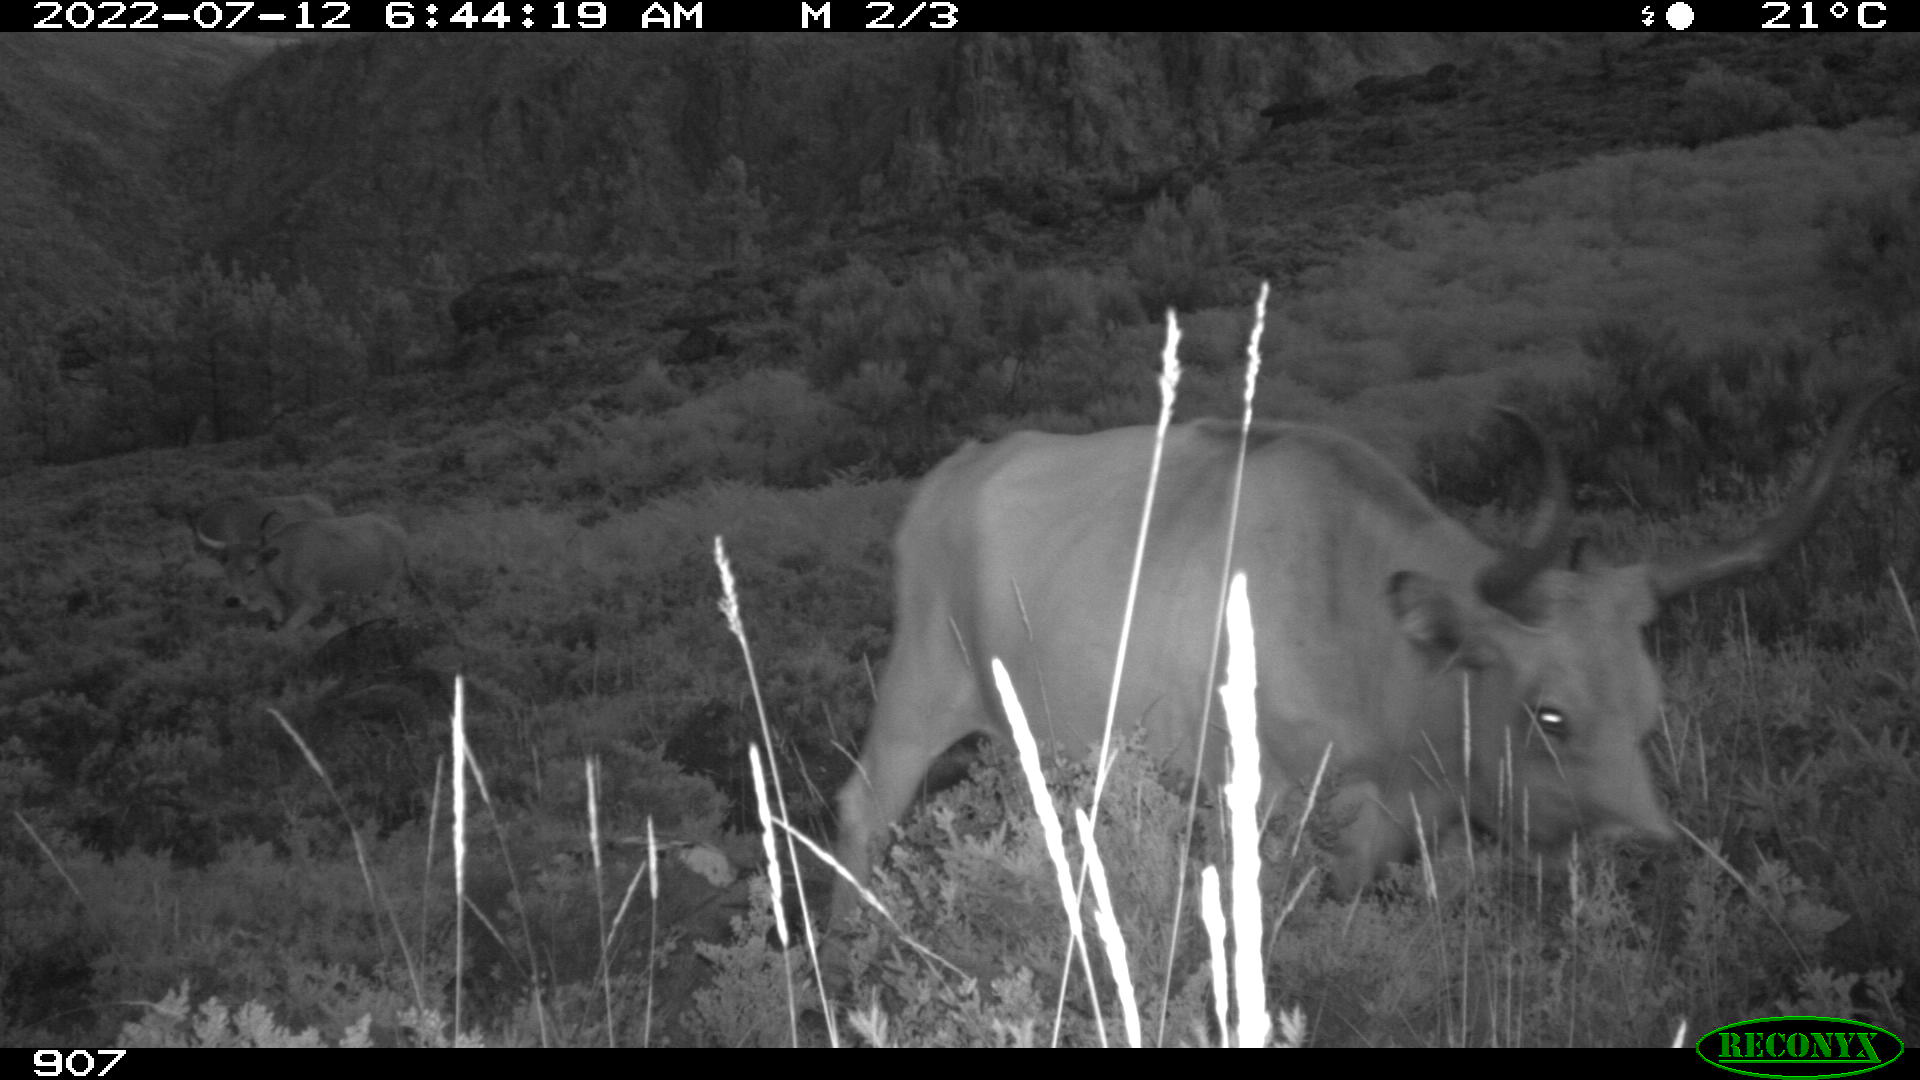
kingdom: Animalia
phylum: Chordata
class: Mammalia
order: Artiodactyla
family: Bovidae
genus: Bos
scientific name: Bos taurus
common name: Domesticated cattle
